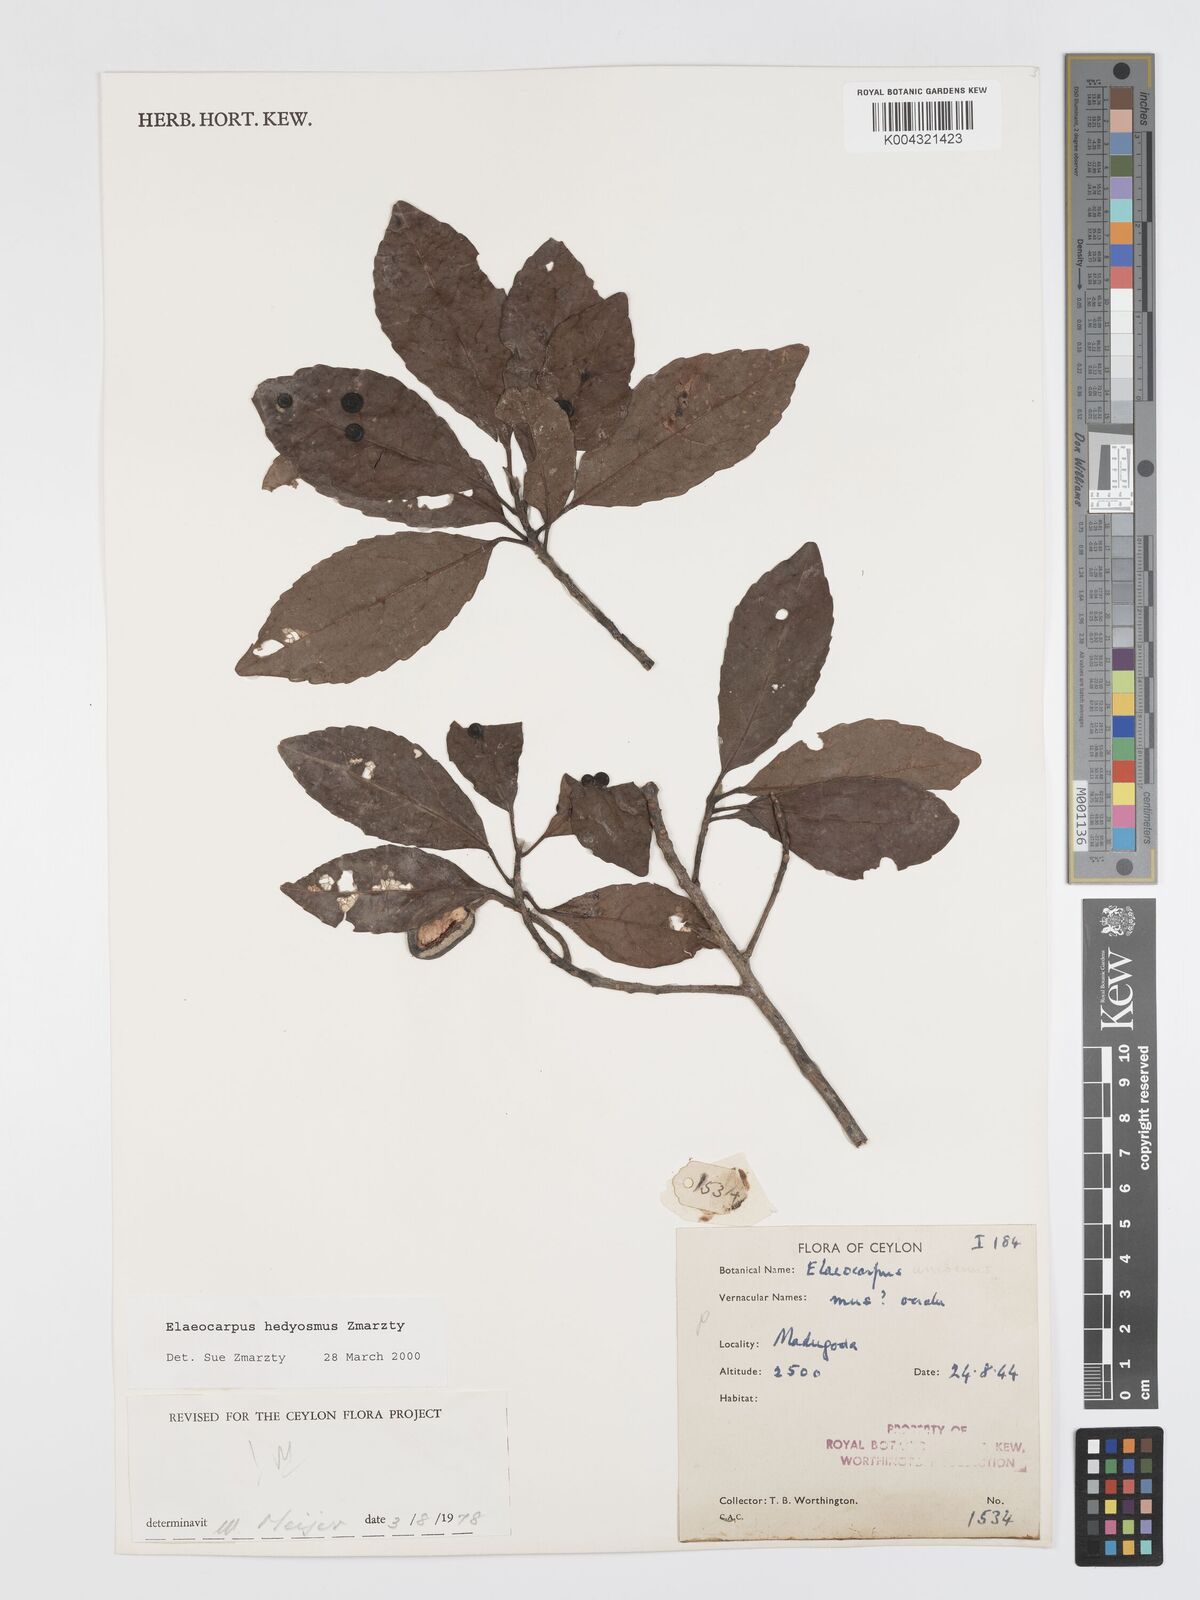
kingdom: Plantae
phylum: Tracheophyta
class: Magnoliopsida
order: Oxalidales
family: Elaeocarpaceae
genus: Elaeocarpus
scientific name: Elaeocarpus hedyosmus
